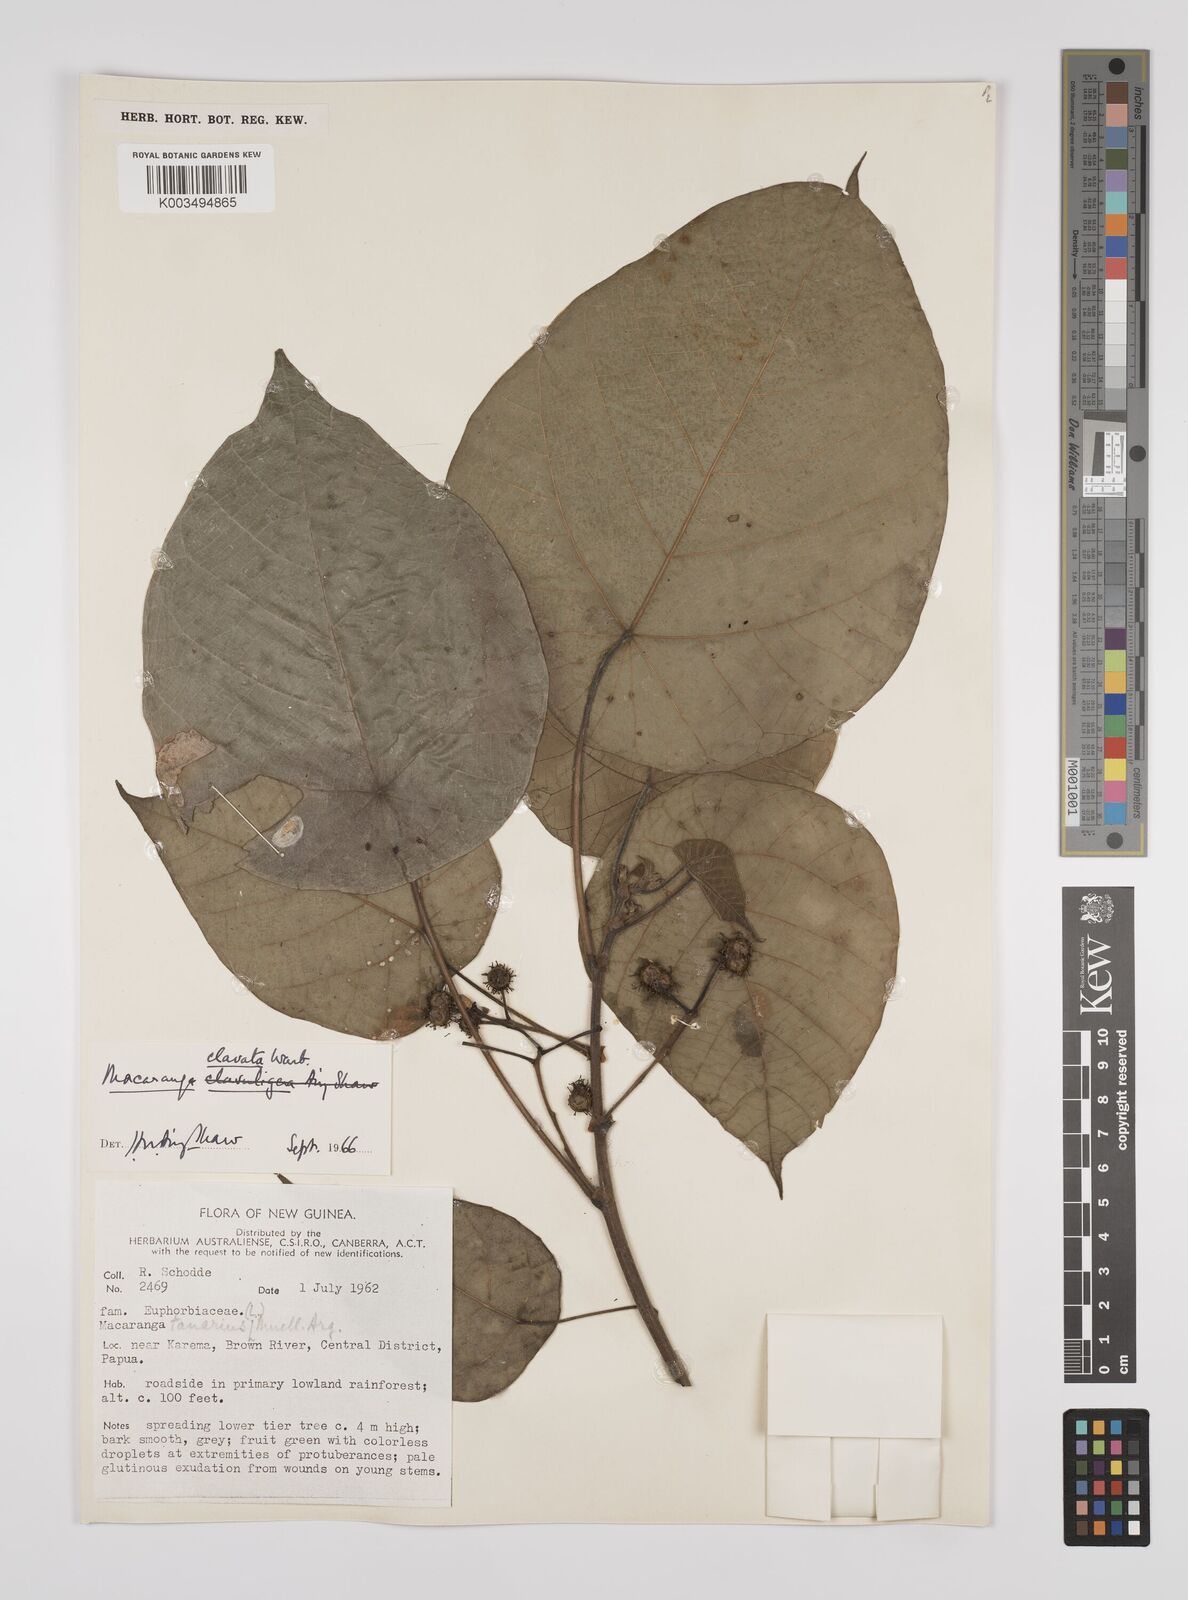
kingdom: Plantae
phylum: Tracheophyta
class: Magnoliopsida
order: Malpighiales
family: Euphorbiaceae
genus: Macaranga
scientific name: Macaranga clavata
